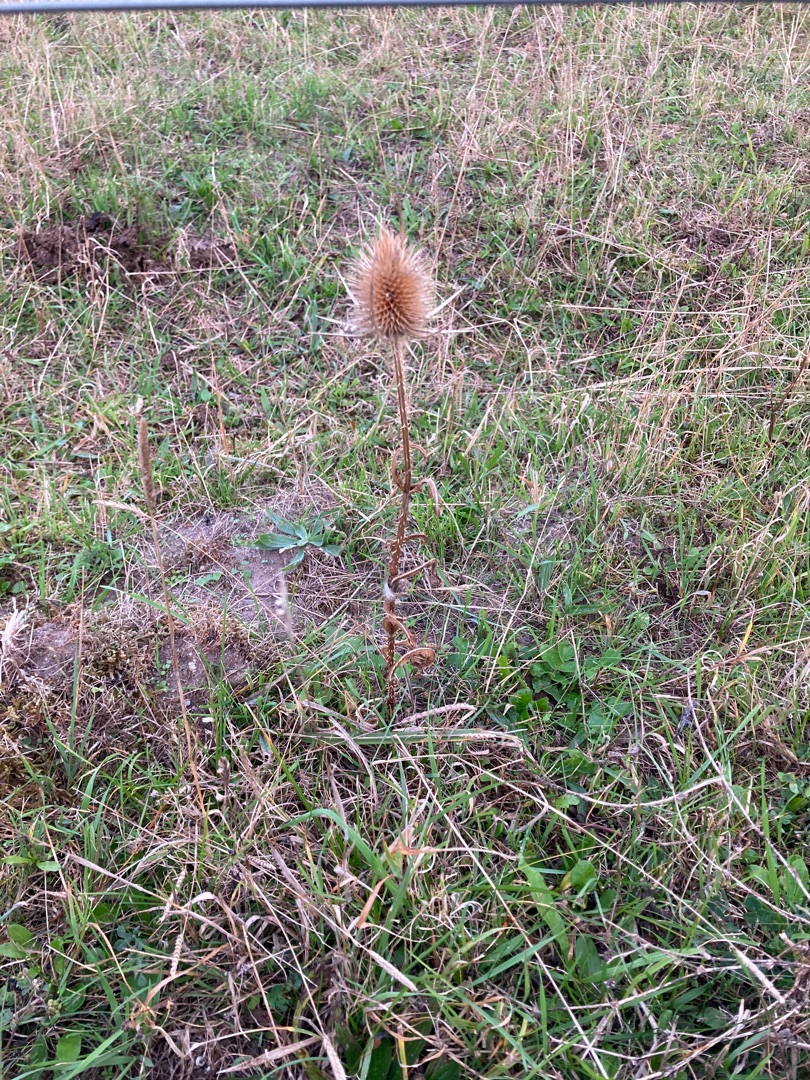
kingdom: Plantae
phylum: Tracheophyta
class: Magnoliopsida
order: Dipsacales
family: Caprifoliaceae
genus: Dipsacus
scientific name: Dipsacus fullonum
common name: Gærde-kartebolle
